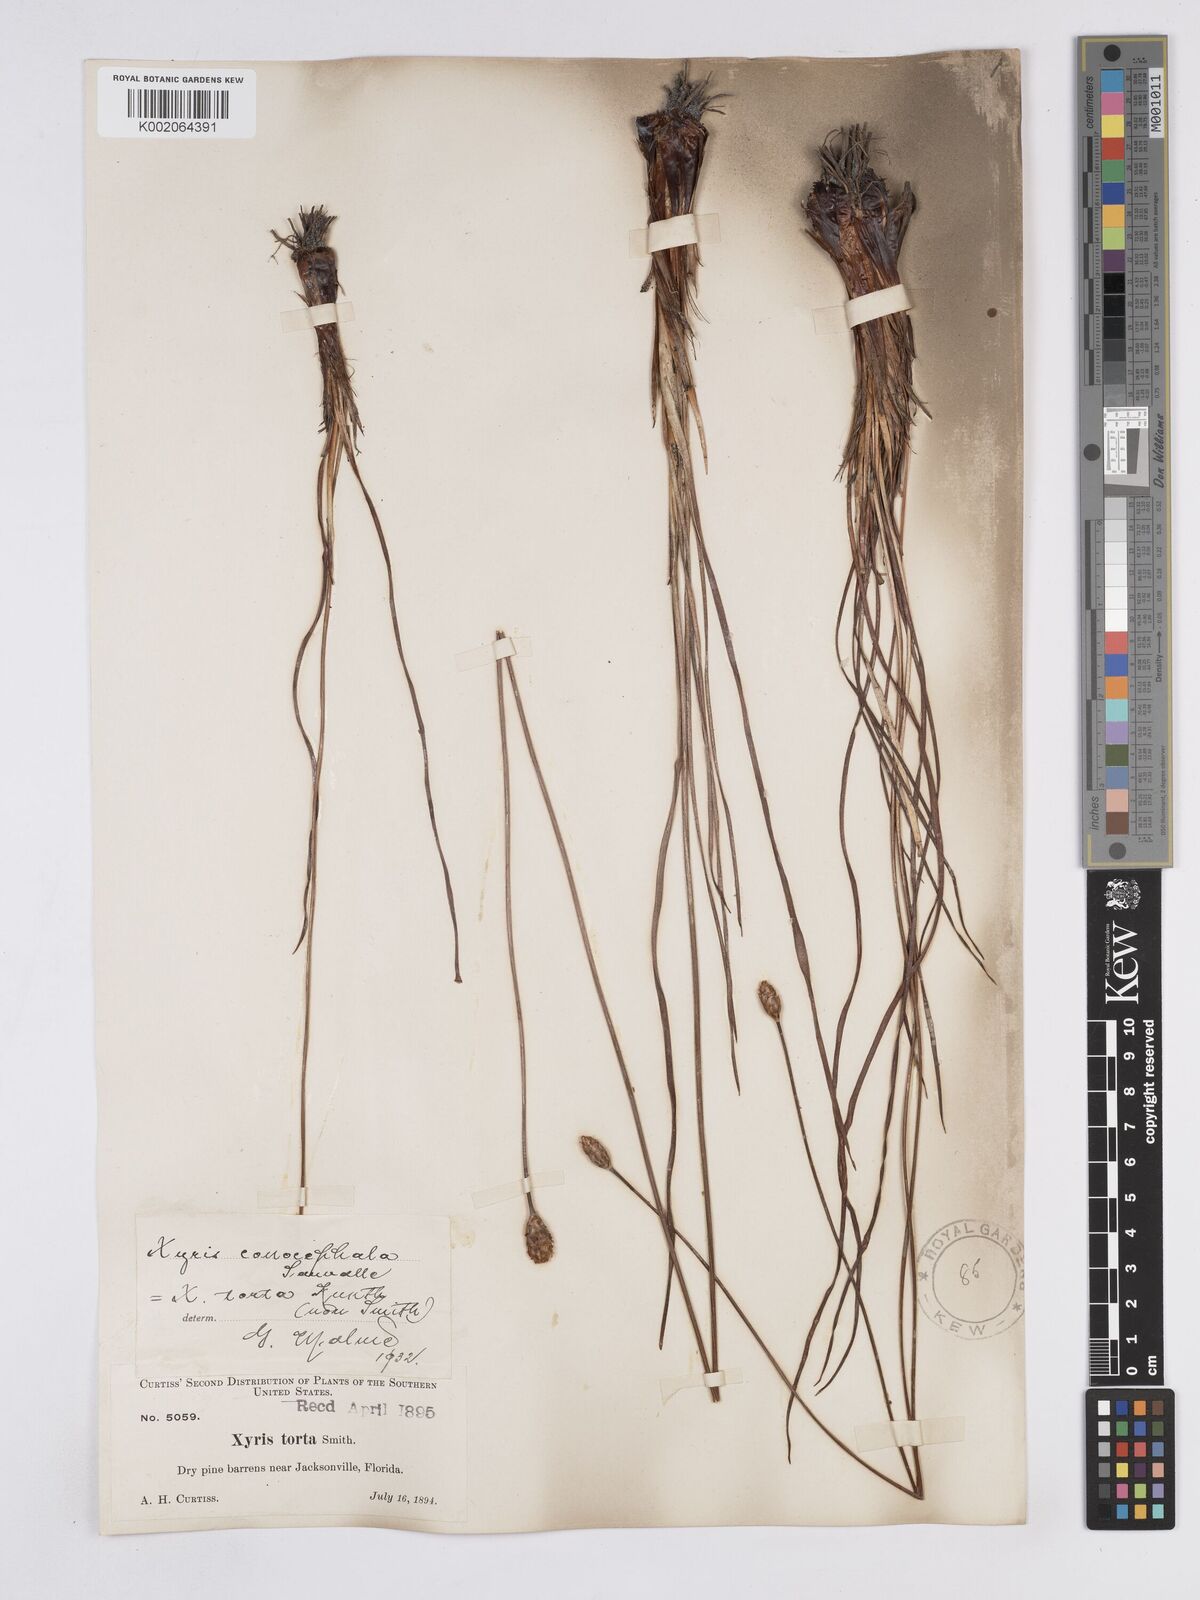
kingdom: Plantae
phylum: Tracheophyta
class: Liliopsida
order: Poales
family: Xyridaceae
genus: Xyris
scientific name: Xyris caroliniana
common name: Carolina yellow-eyed-grass
